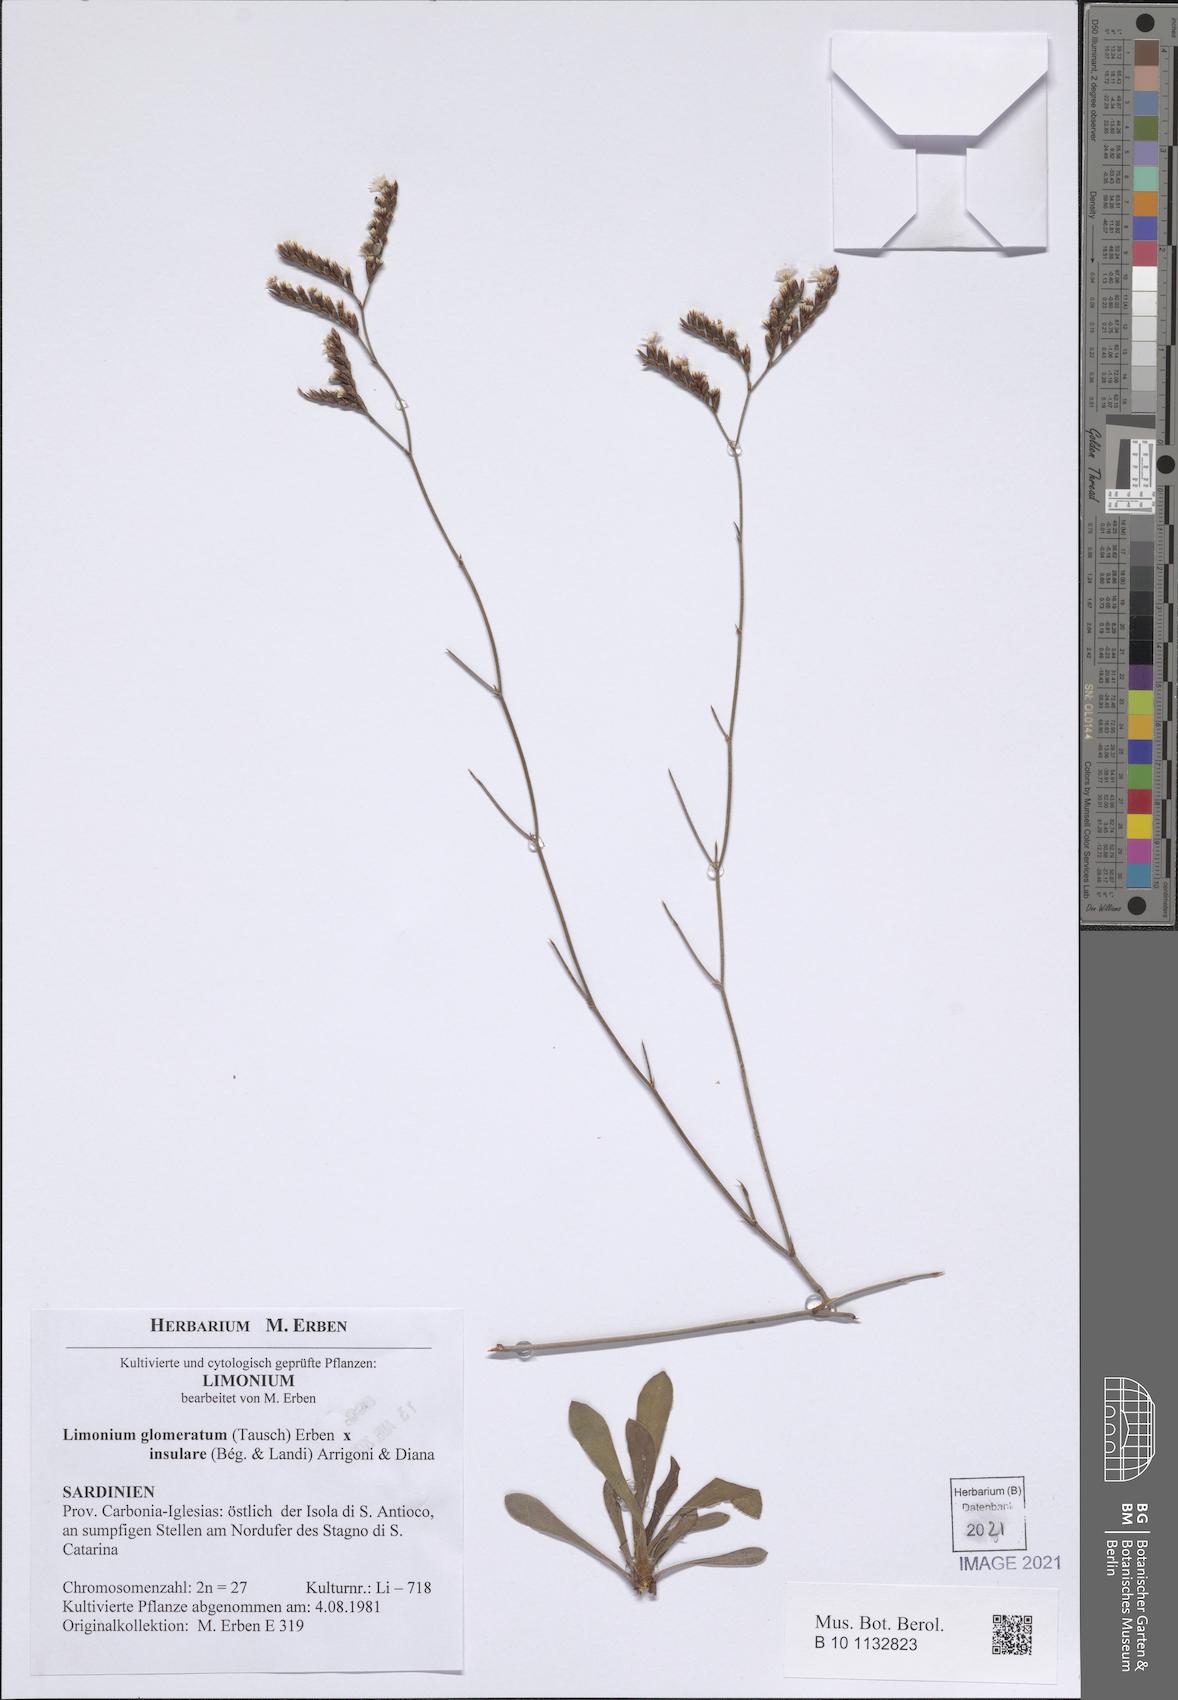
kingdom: Plantae
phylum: Tracheophyta
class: Magnoliopsida
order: Caryophyllales
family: Plumbaginaceae
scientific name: Plumbaginaceae
